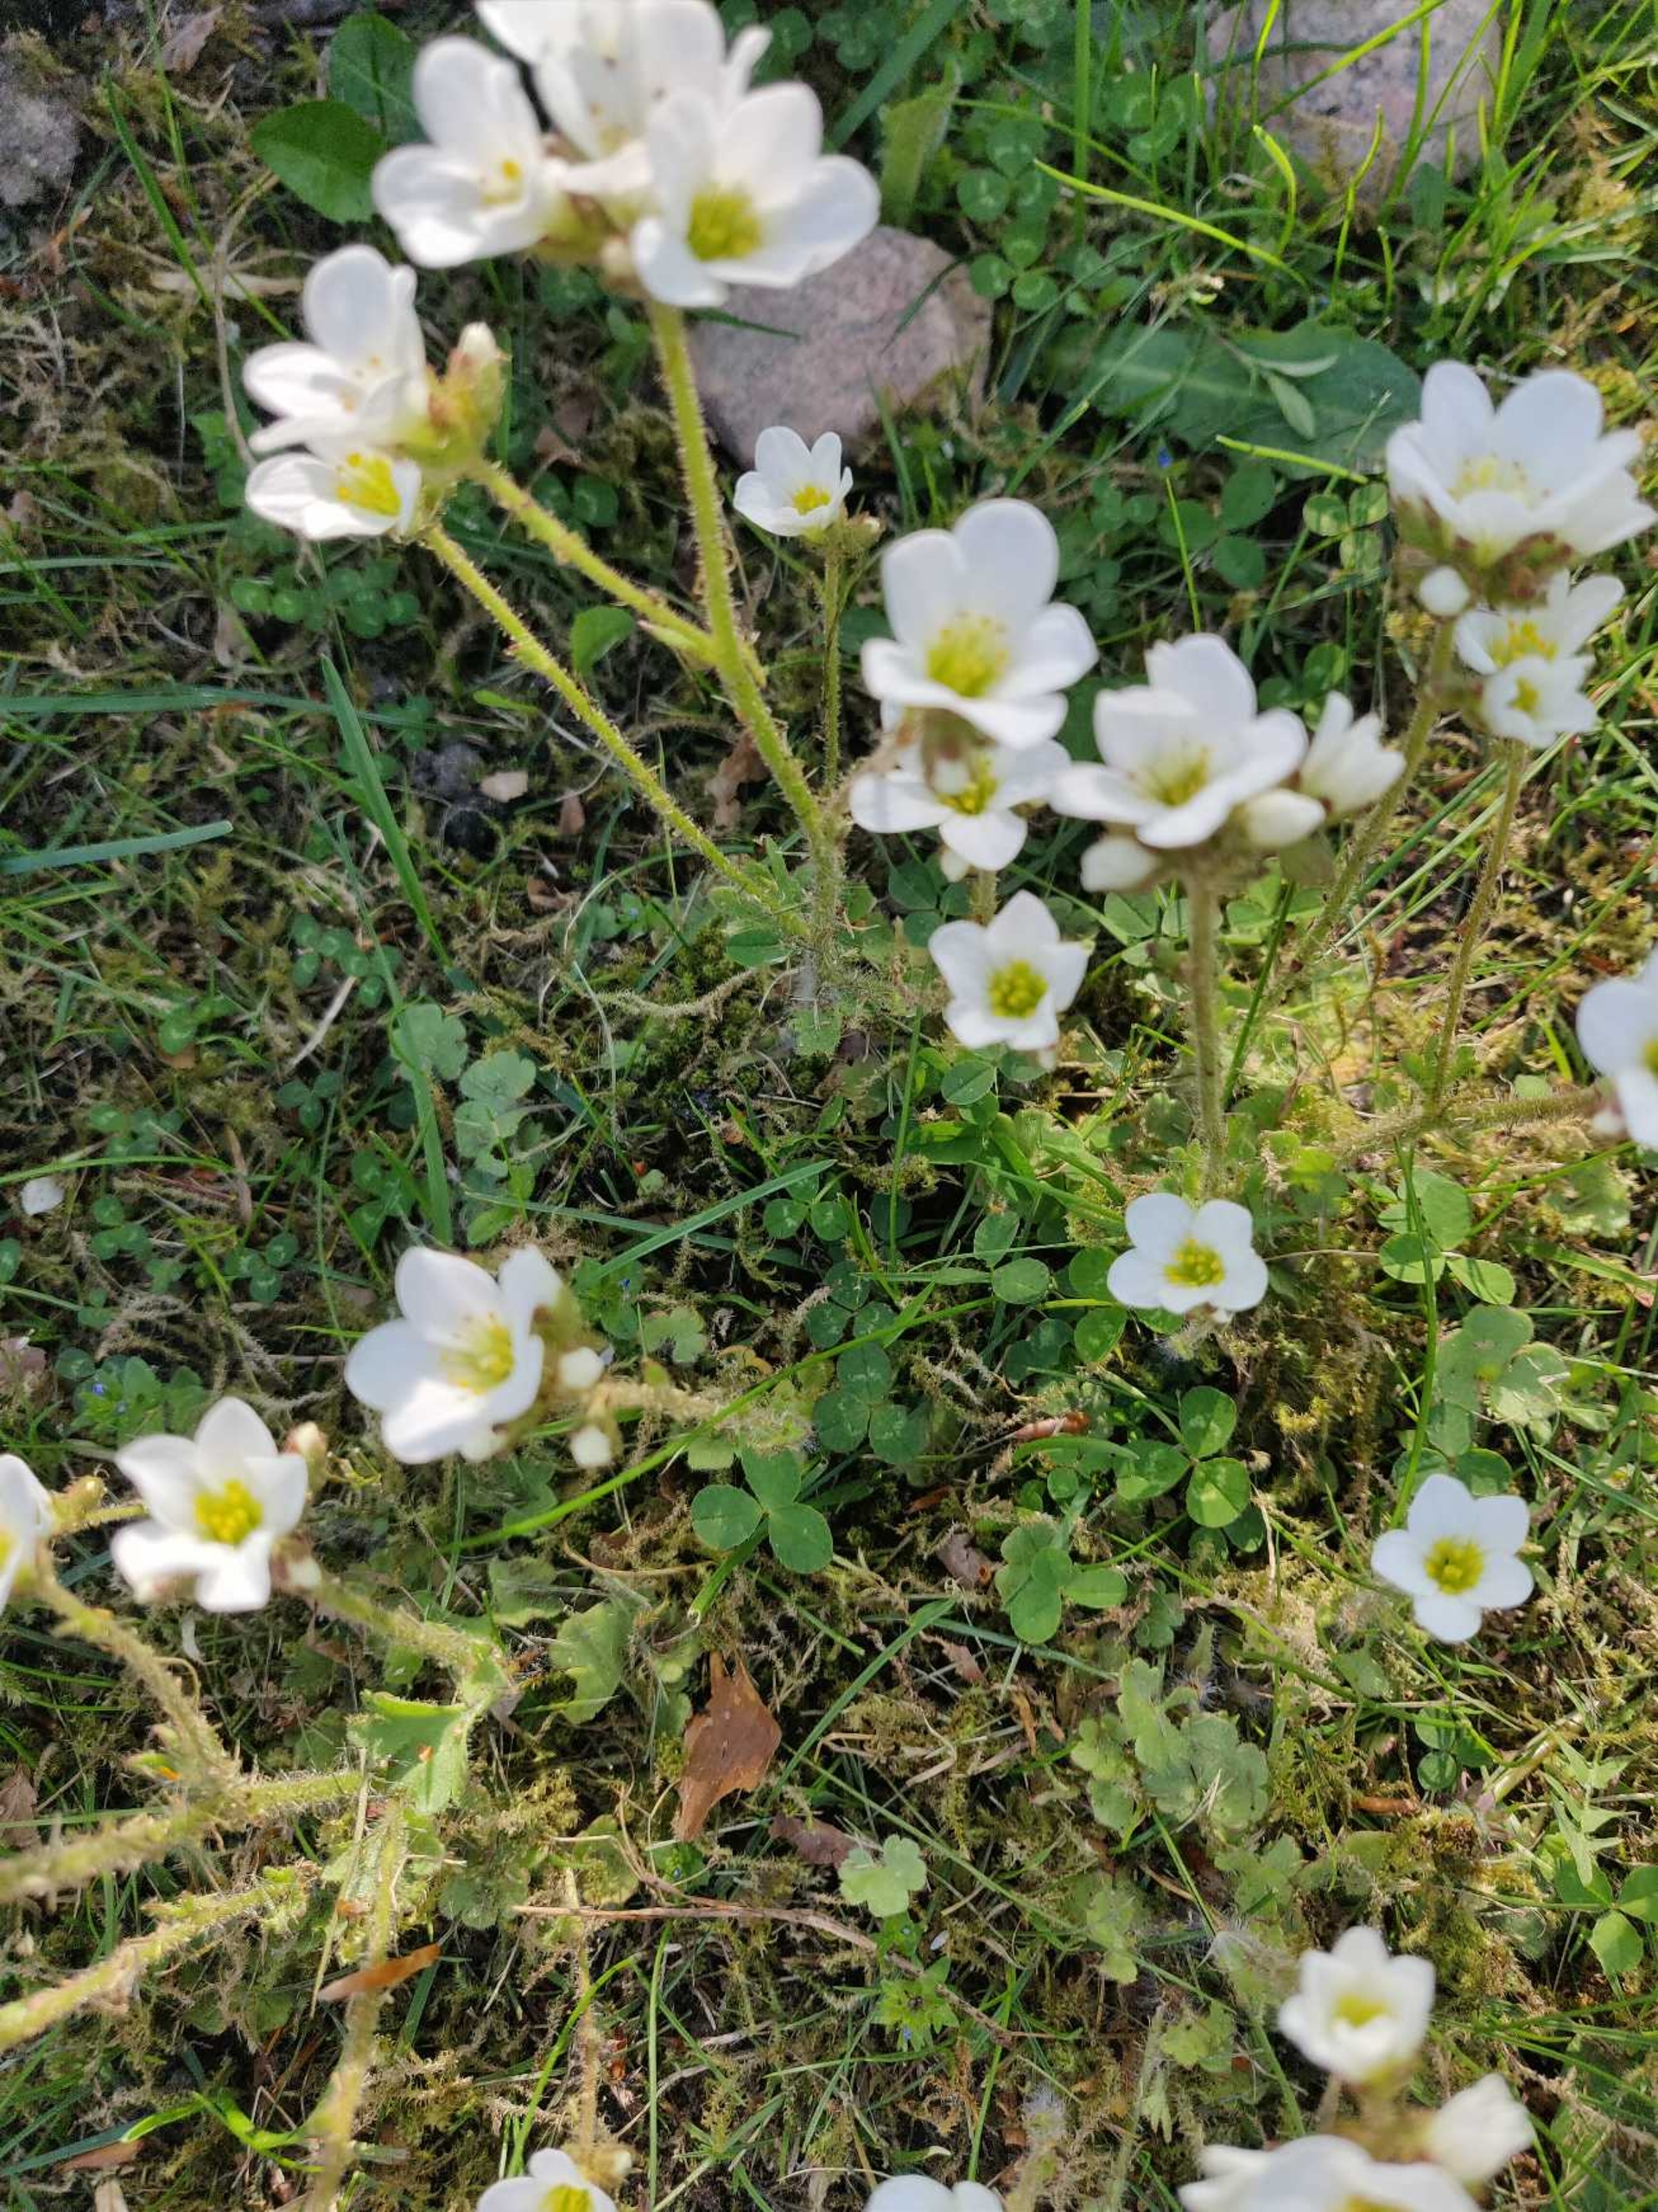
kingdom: Plantae
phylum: Tracheophyta
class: Magnoliopsida
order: Saxifragales
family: Saxifragaceae
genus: Saxifraga
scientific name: Saxifraga granulata
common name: Kornet stenbræk
